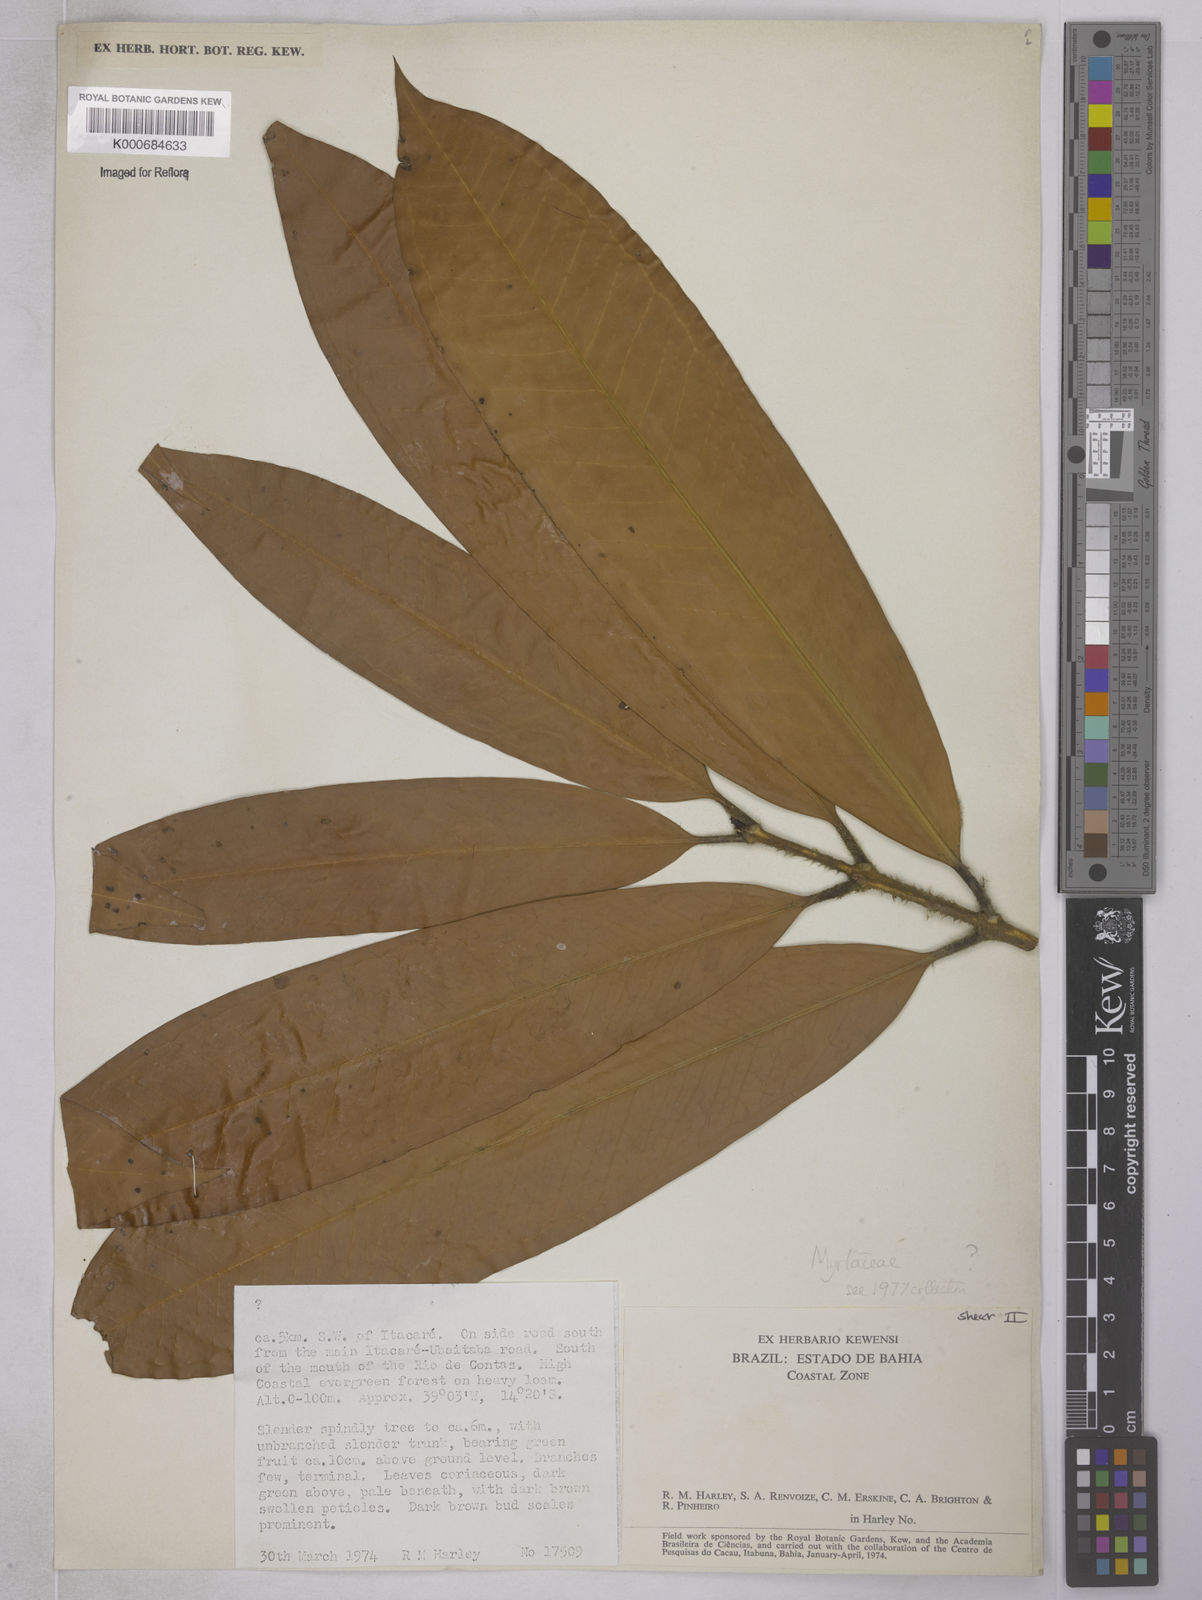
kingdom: Plantae
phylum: Tracheophyta
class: Magnoliopsida
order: Myrtales
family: Myrtaceae
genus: Plinia
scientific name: Plinia rara
